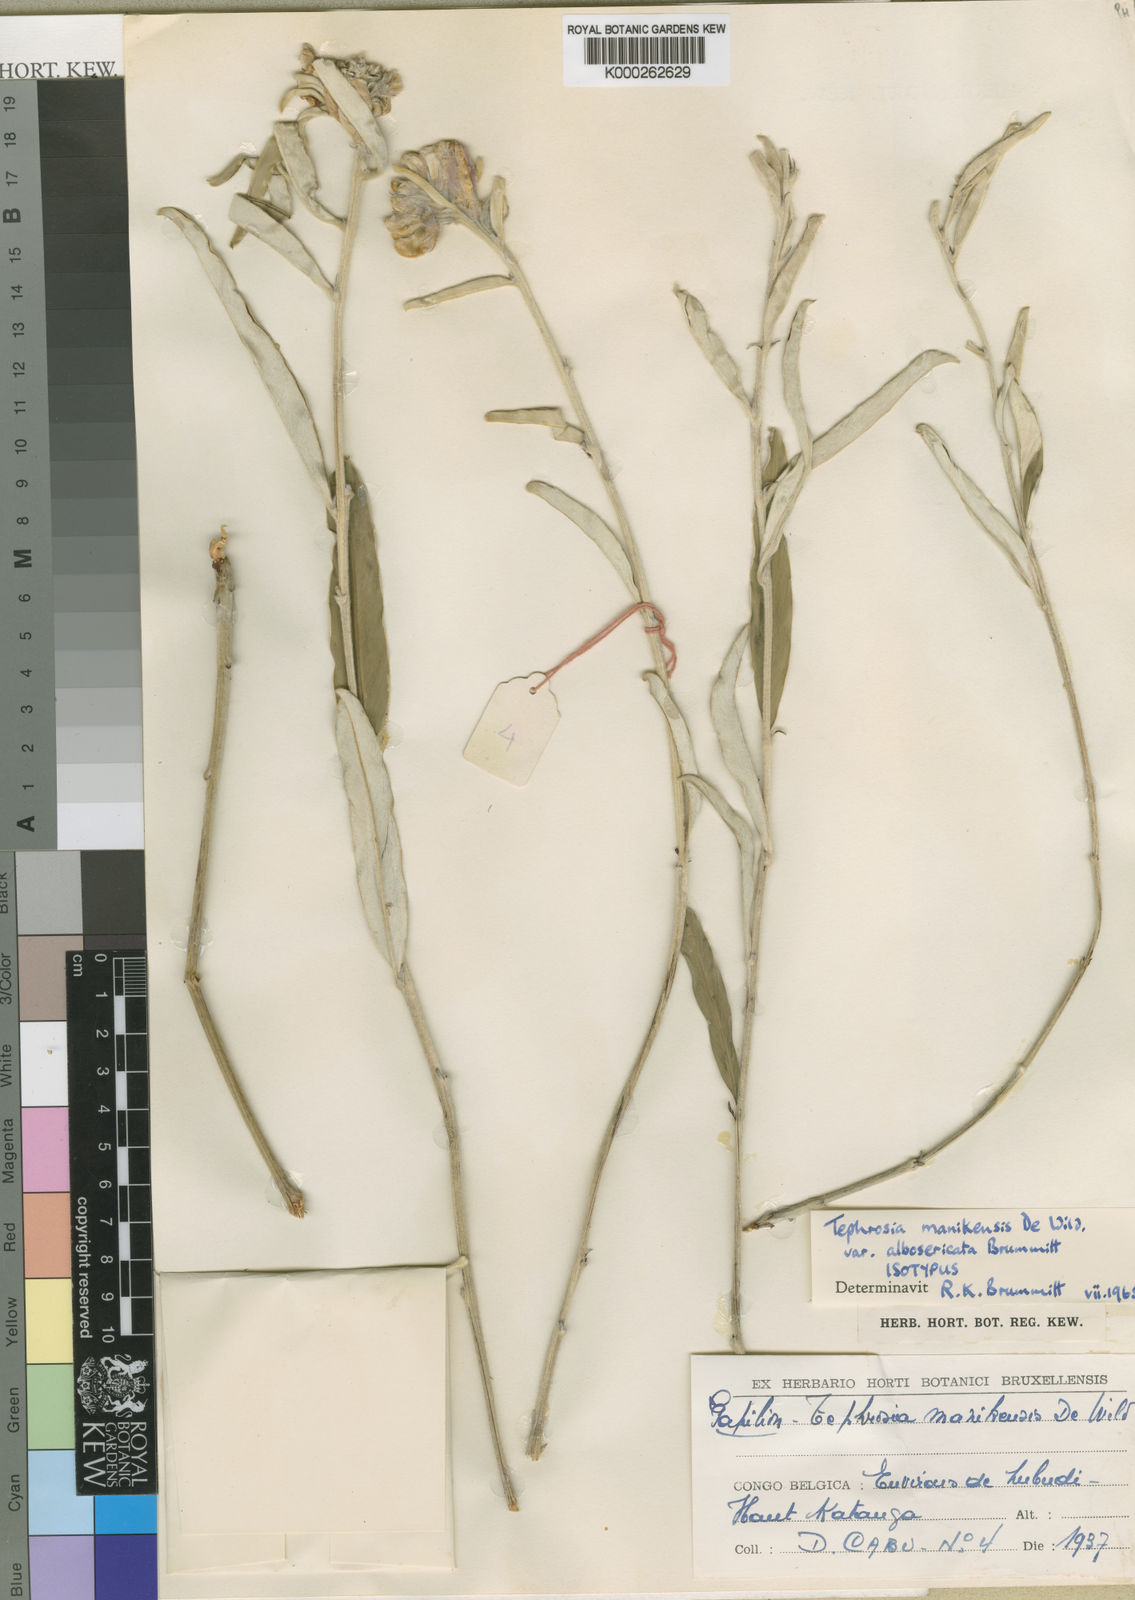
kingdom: Plantae
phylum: Tracheophyta
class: Magnoliopsida
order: Fabales
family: Fabaceae
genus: Tephrosia
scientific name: Tephrosia manikensis
